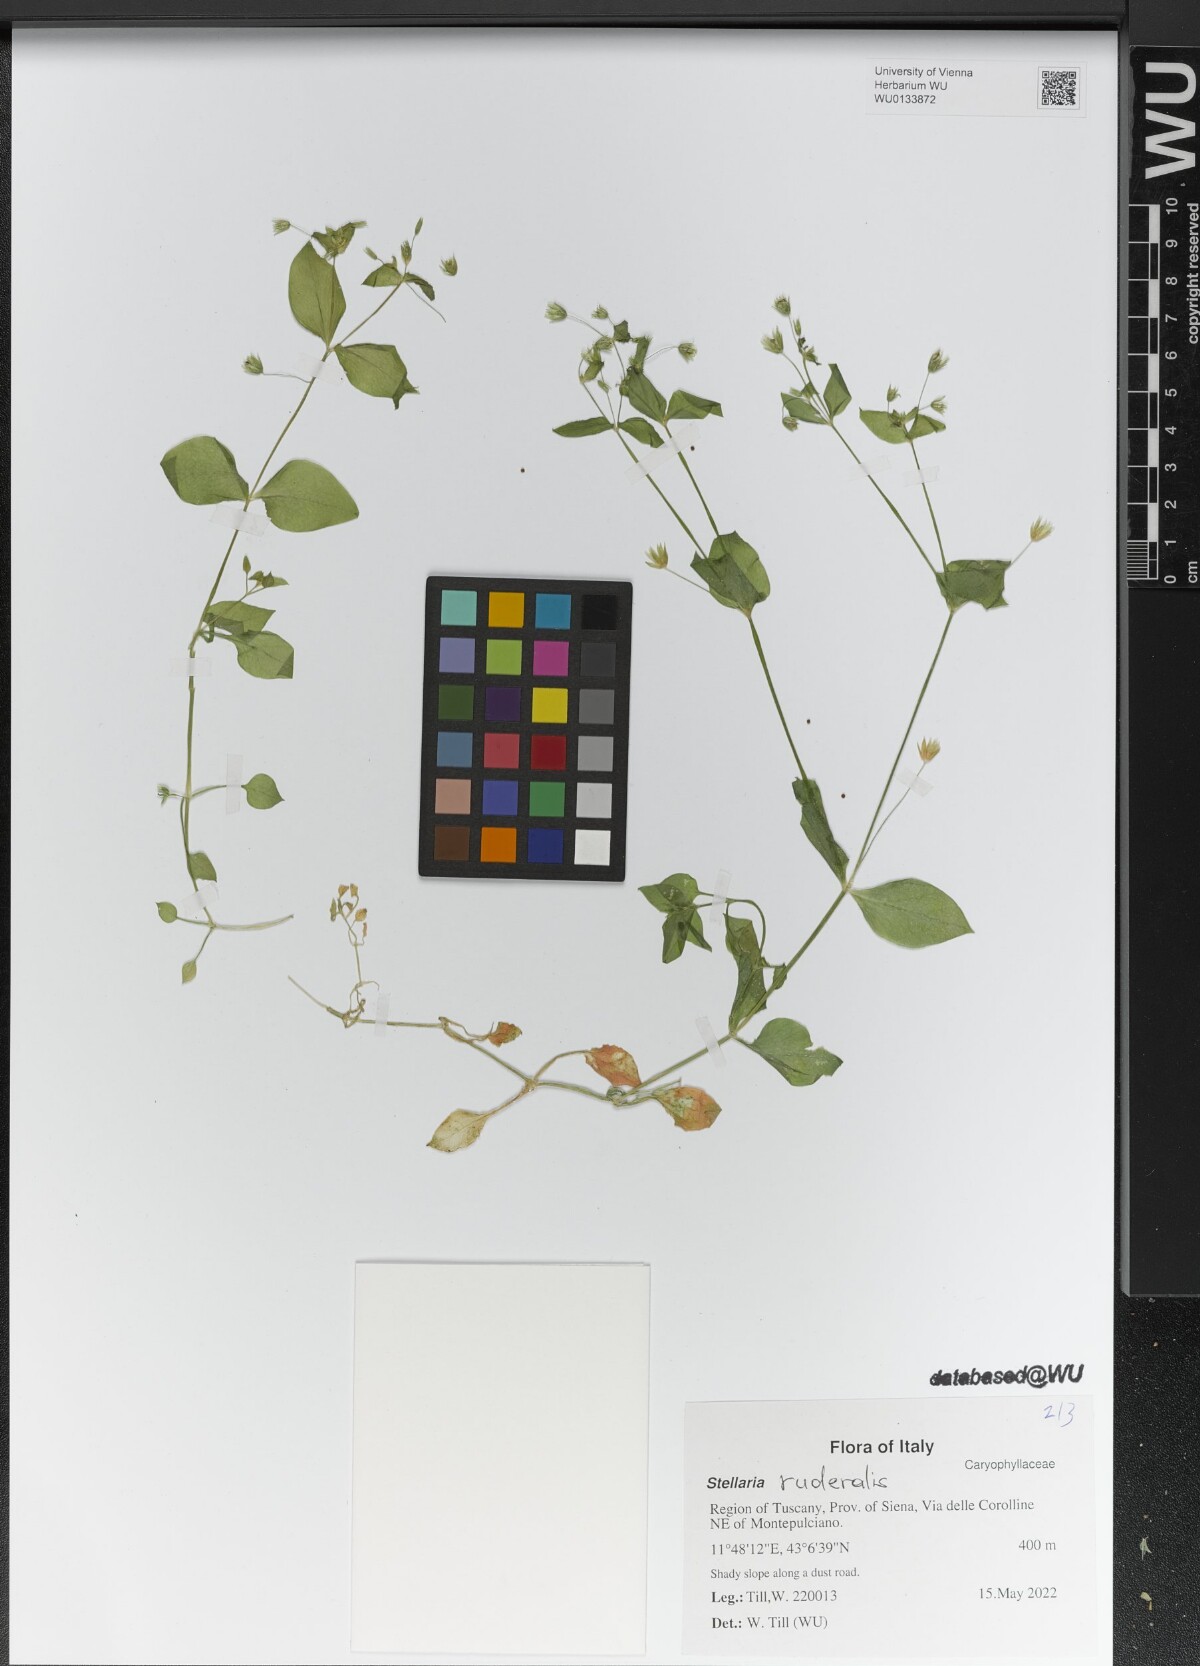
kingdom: Plantae
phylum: Tracheophyta
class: Magnoliopsida
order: Caryophyllales
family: Caryophyllaceae
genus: Stellaria
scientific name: Stellaria ruderalis
